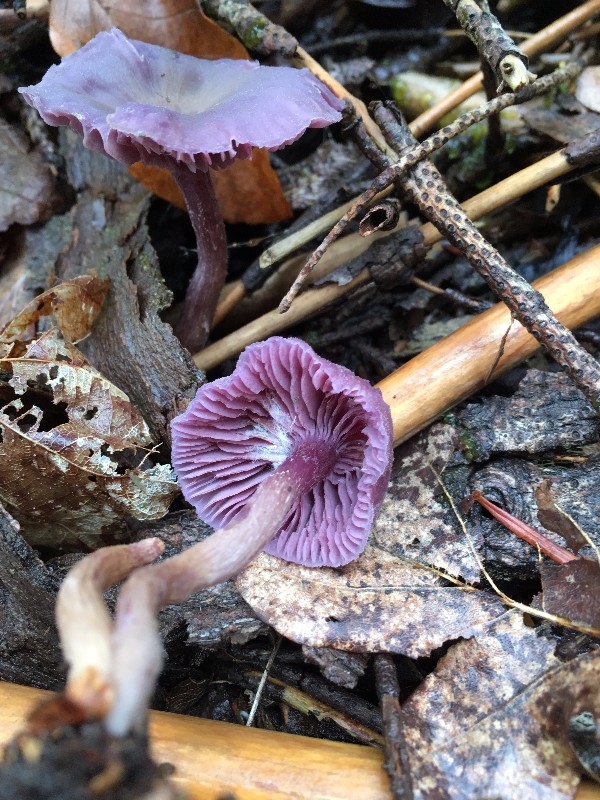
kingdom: Fungi
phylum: Basidiomycota
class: Agaricomycetes
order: Agaricales
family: Hydnangiaceae
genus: Laccaria
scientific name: Laccaria amethystina
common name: violet ametysthat
